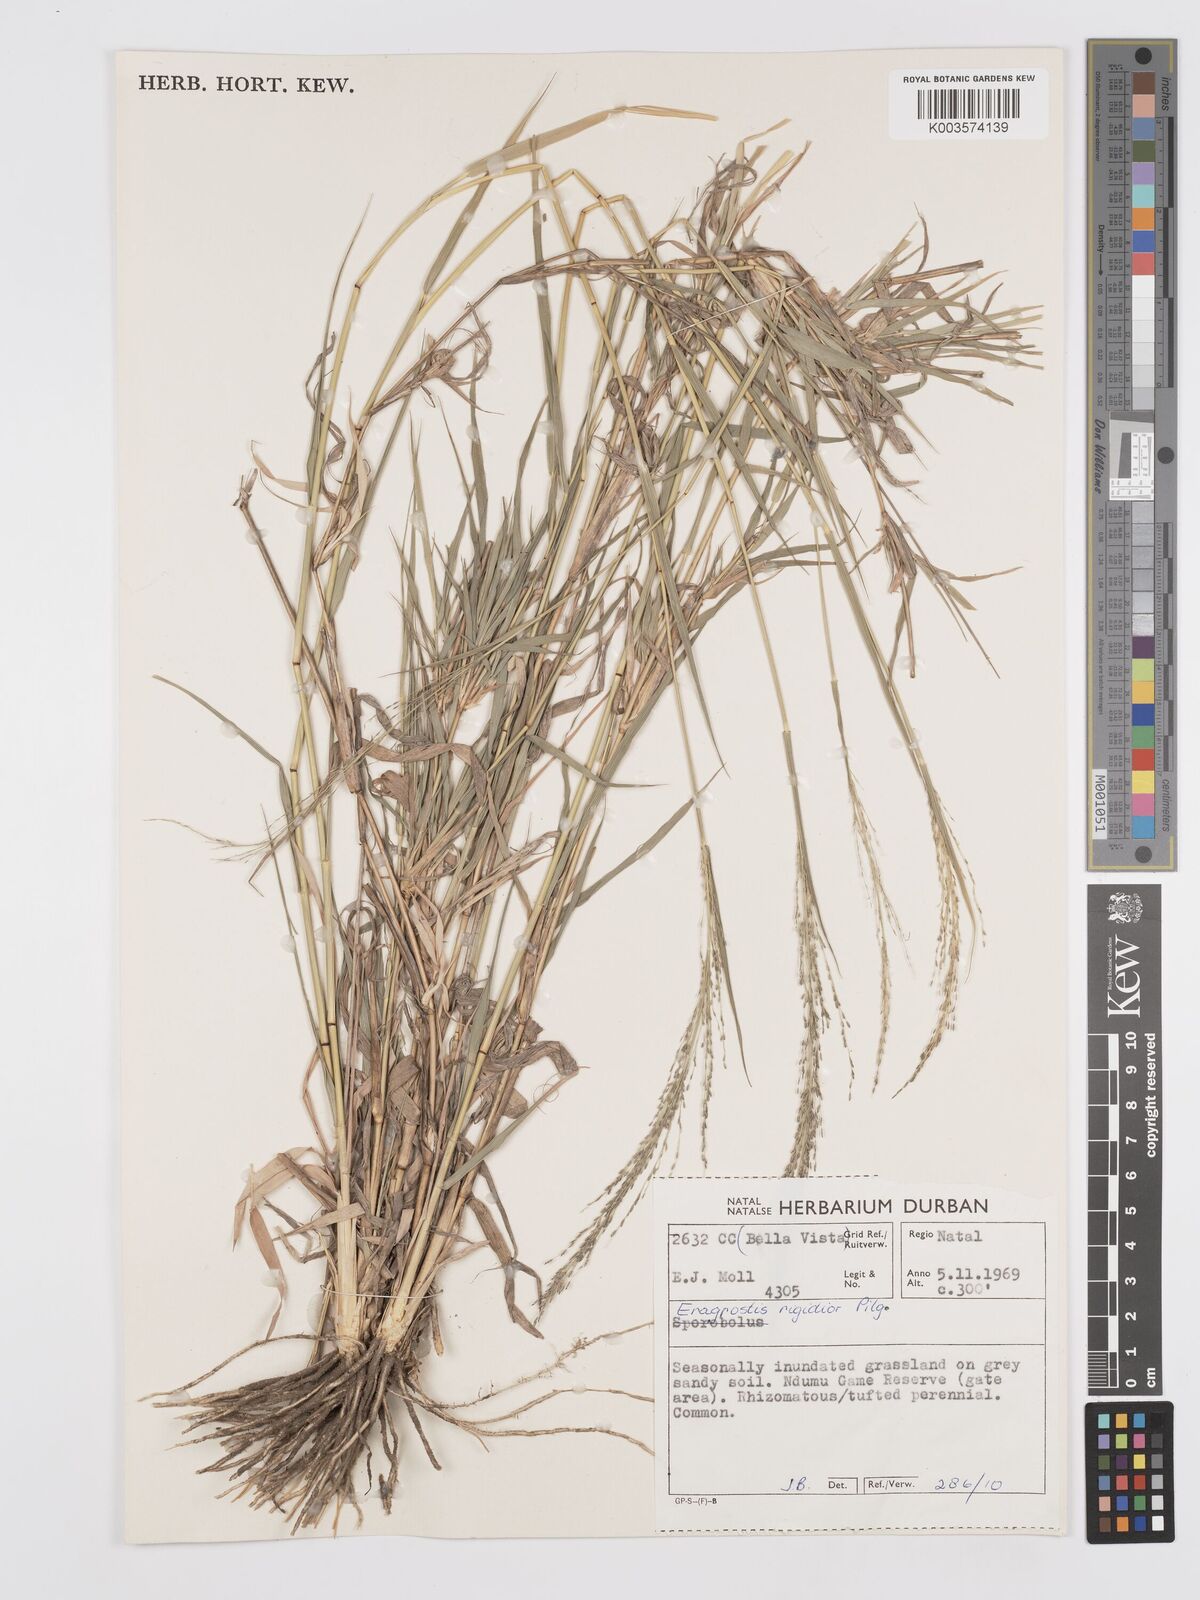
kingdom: Plantae
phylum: Tracheophyta
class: Liliopsida
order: Poales
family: Poaceae
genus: Eragrostis
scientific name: Eragrostis cylindriflora
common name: Cylinderflower lovegrass
